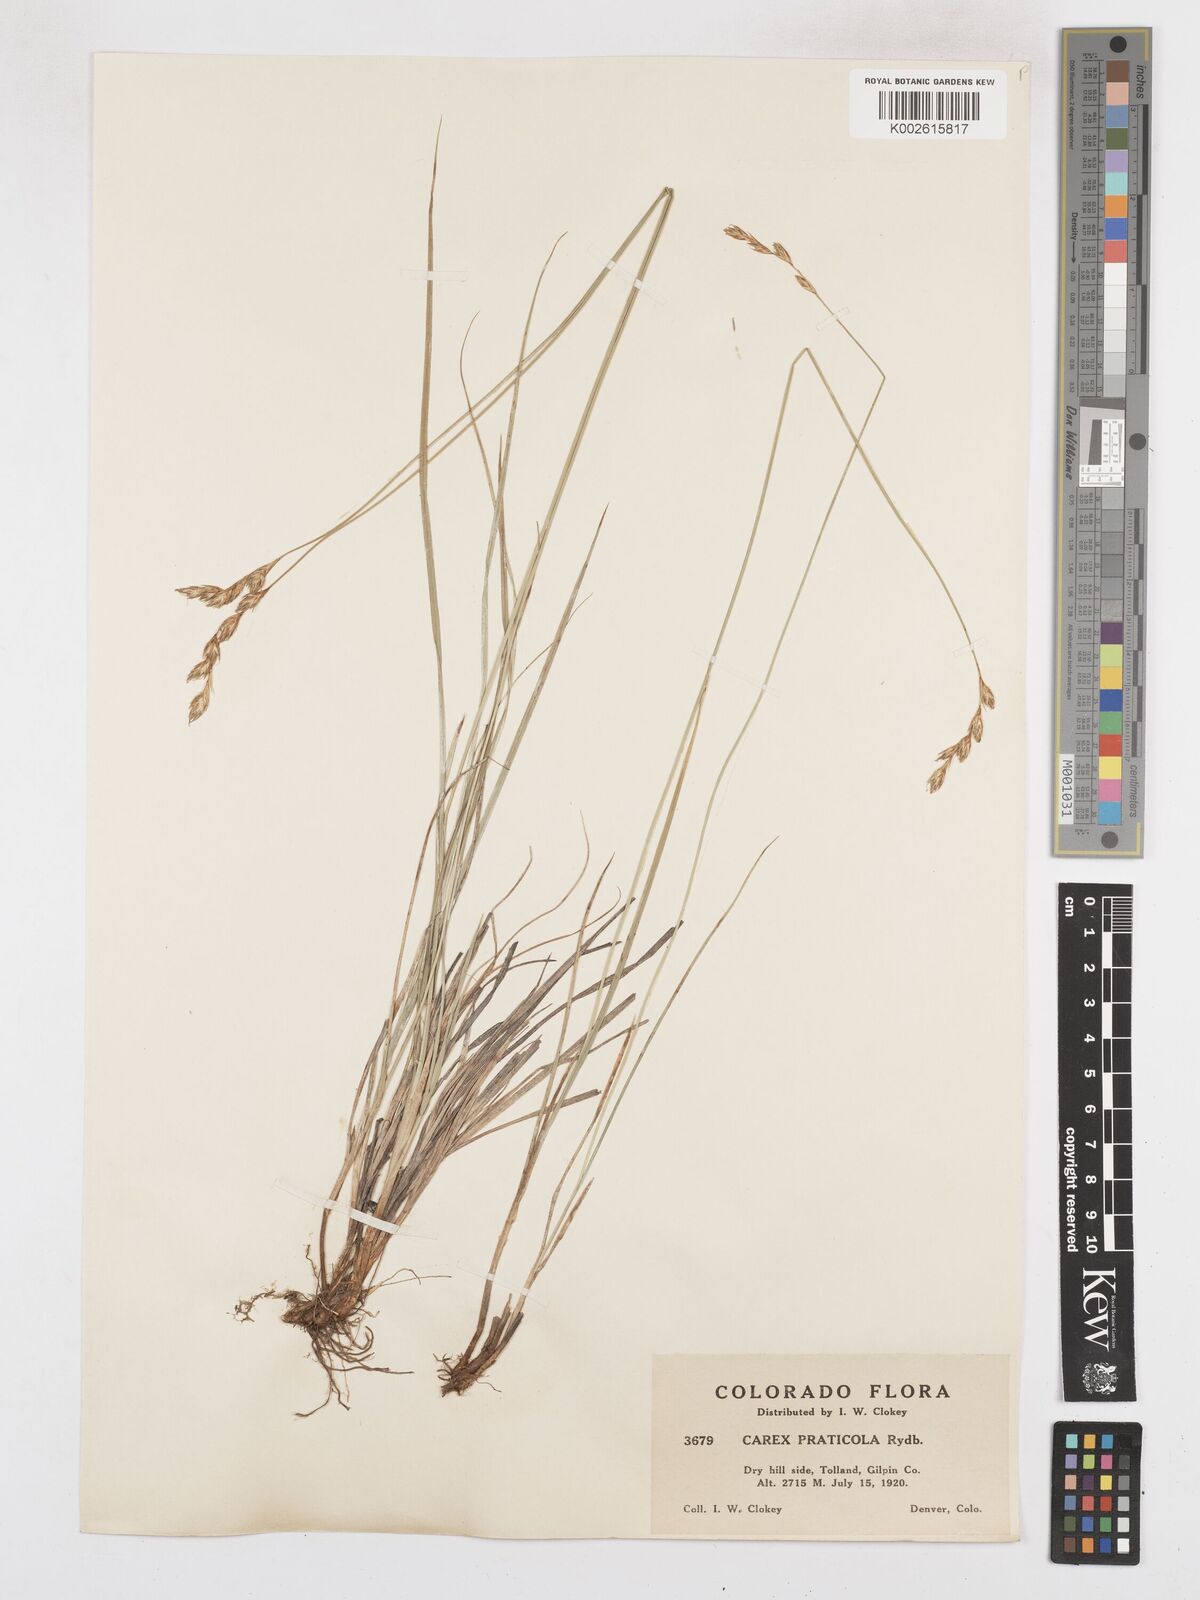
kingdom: Plantae
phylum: Tracheophyta
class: Liliopsida
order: Poales
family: Cyperaceae
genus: Carex
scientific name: Carex praticola
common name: Large-fruited oval sedge
